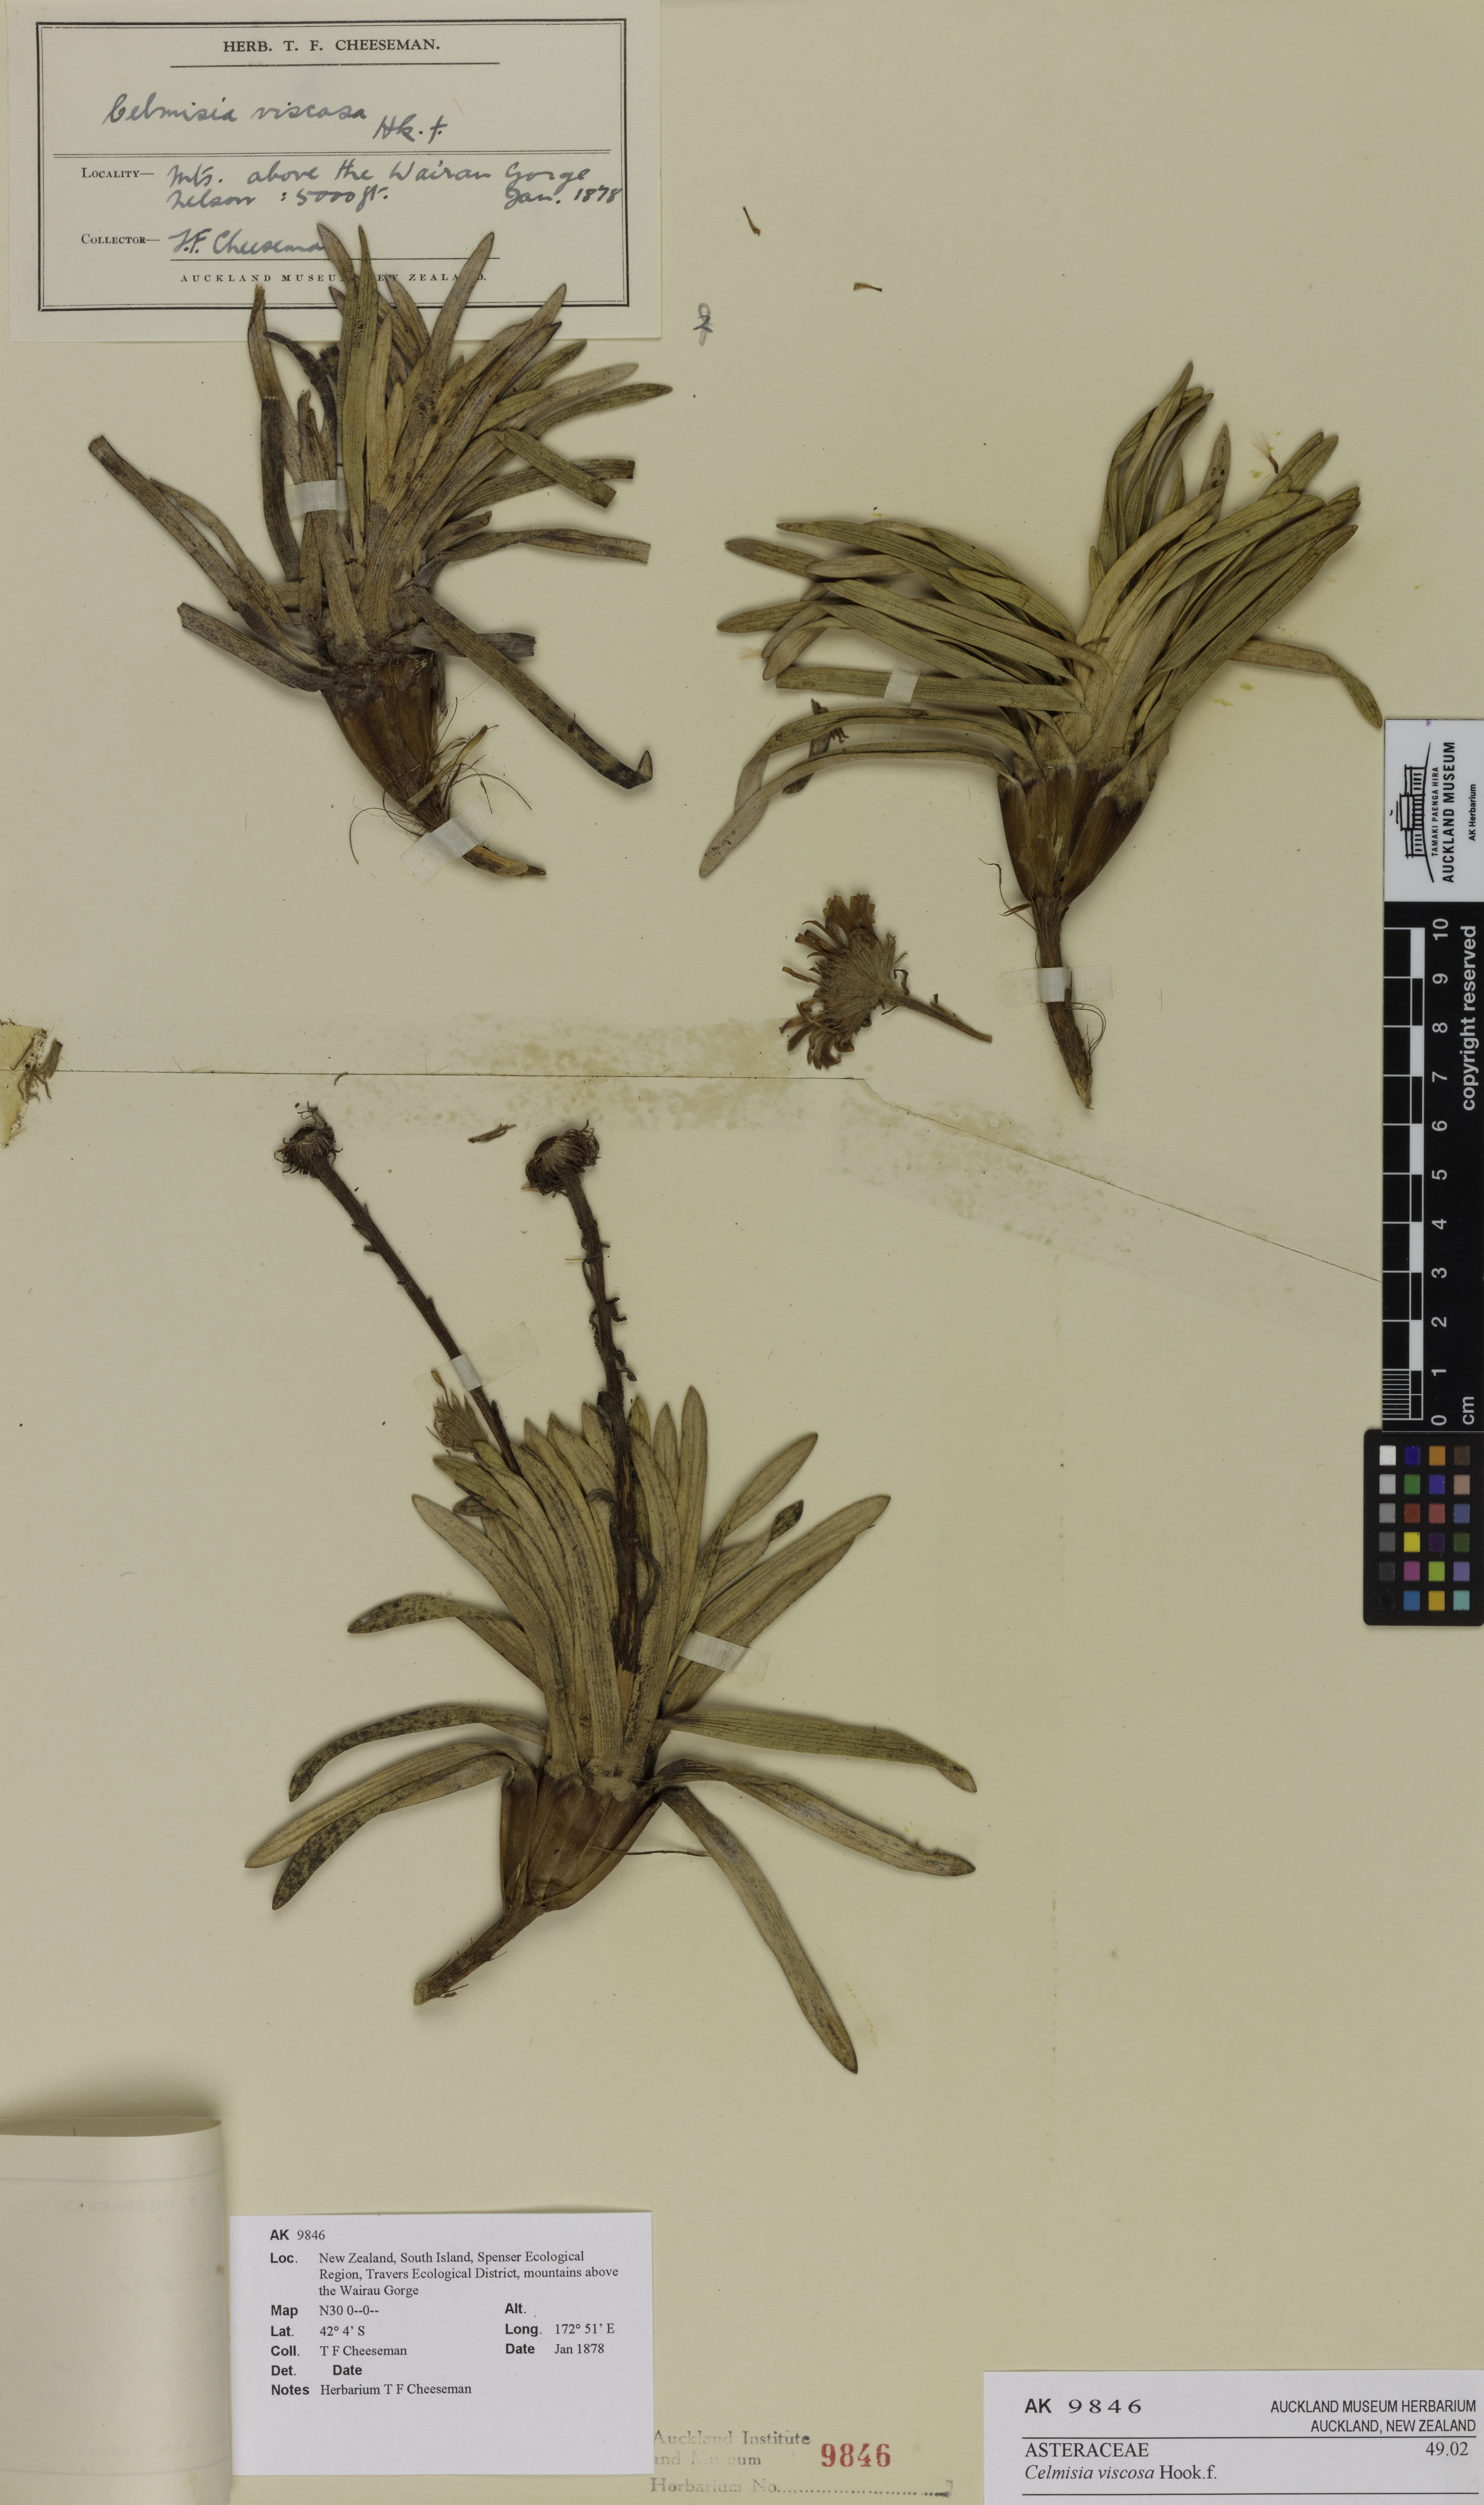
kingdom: Plantae
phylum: Tracheophyta
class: Magnoliopsida
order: Asterales
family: Asteraceae
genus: Celmisia
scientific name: Celmisia viscosa
